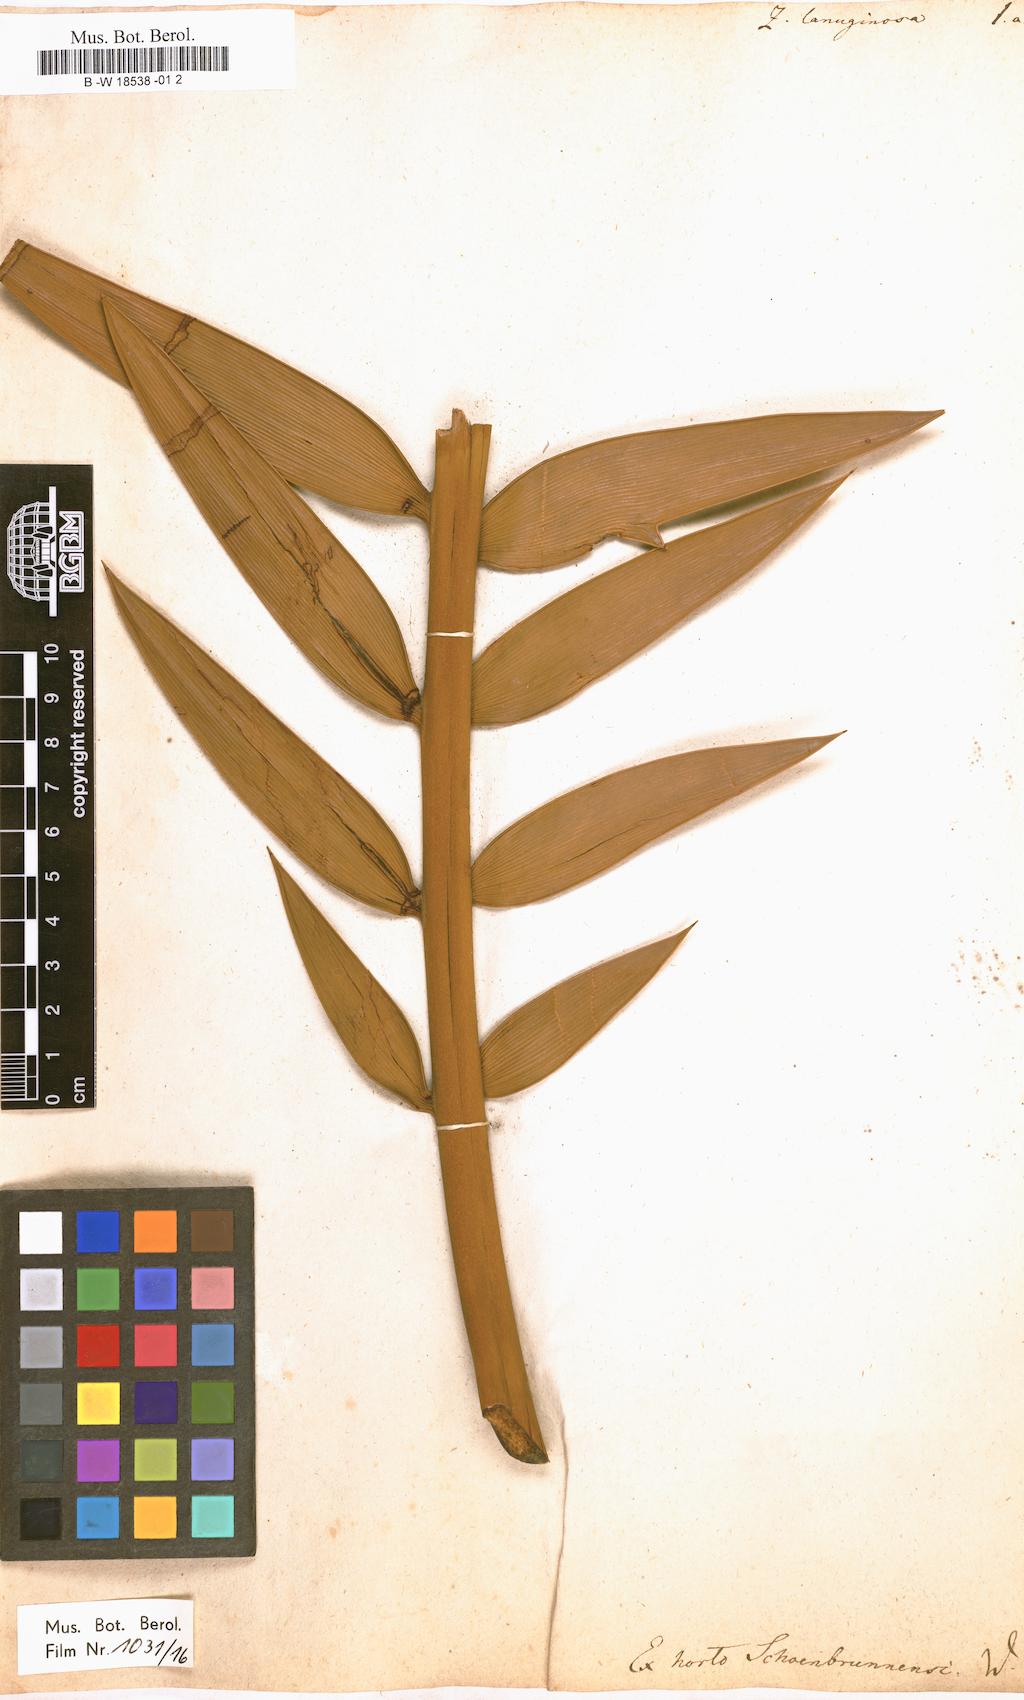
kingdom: Plantae
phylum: Tracheophyta
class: Cycadopsida
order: Cycadales
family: Zamiaceae
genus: Encephalartos
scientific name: Encephalartos longifolius
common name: Suurberg cycad
